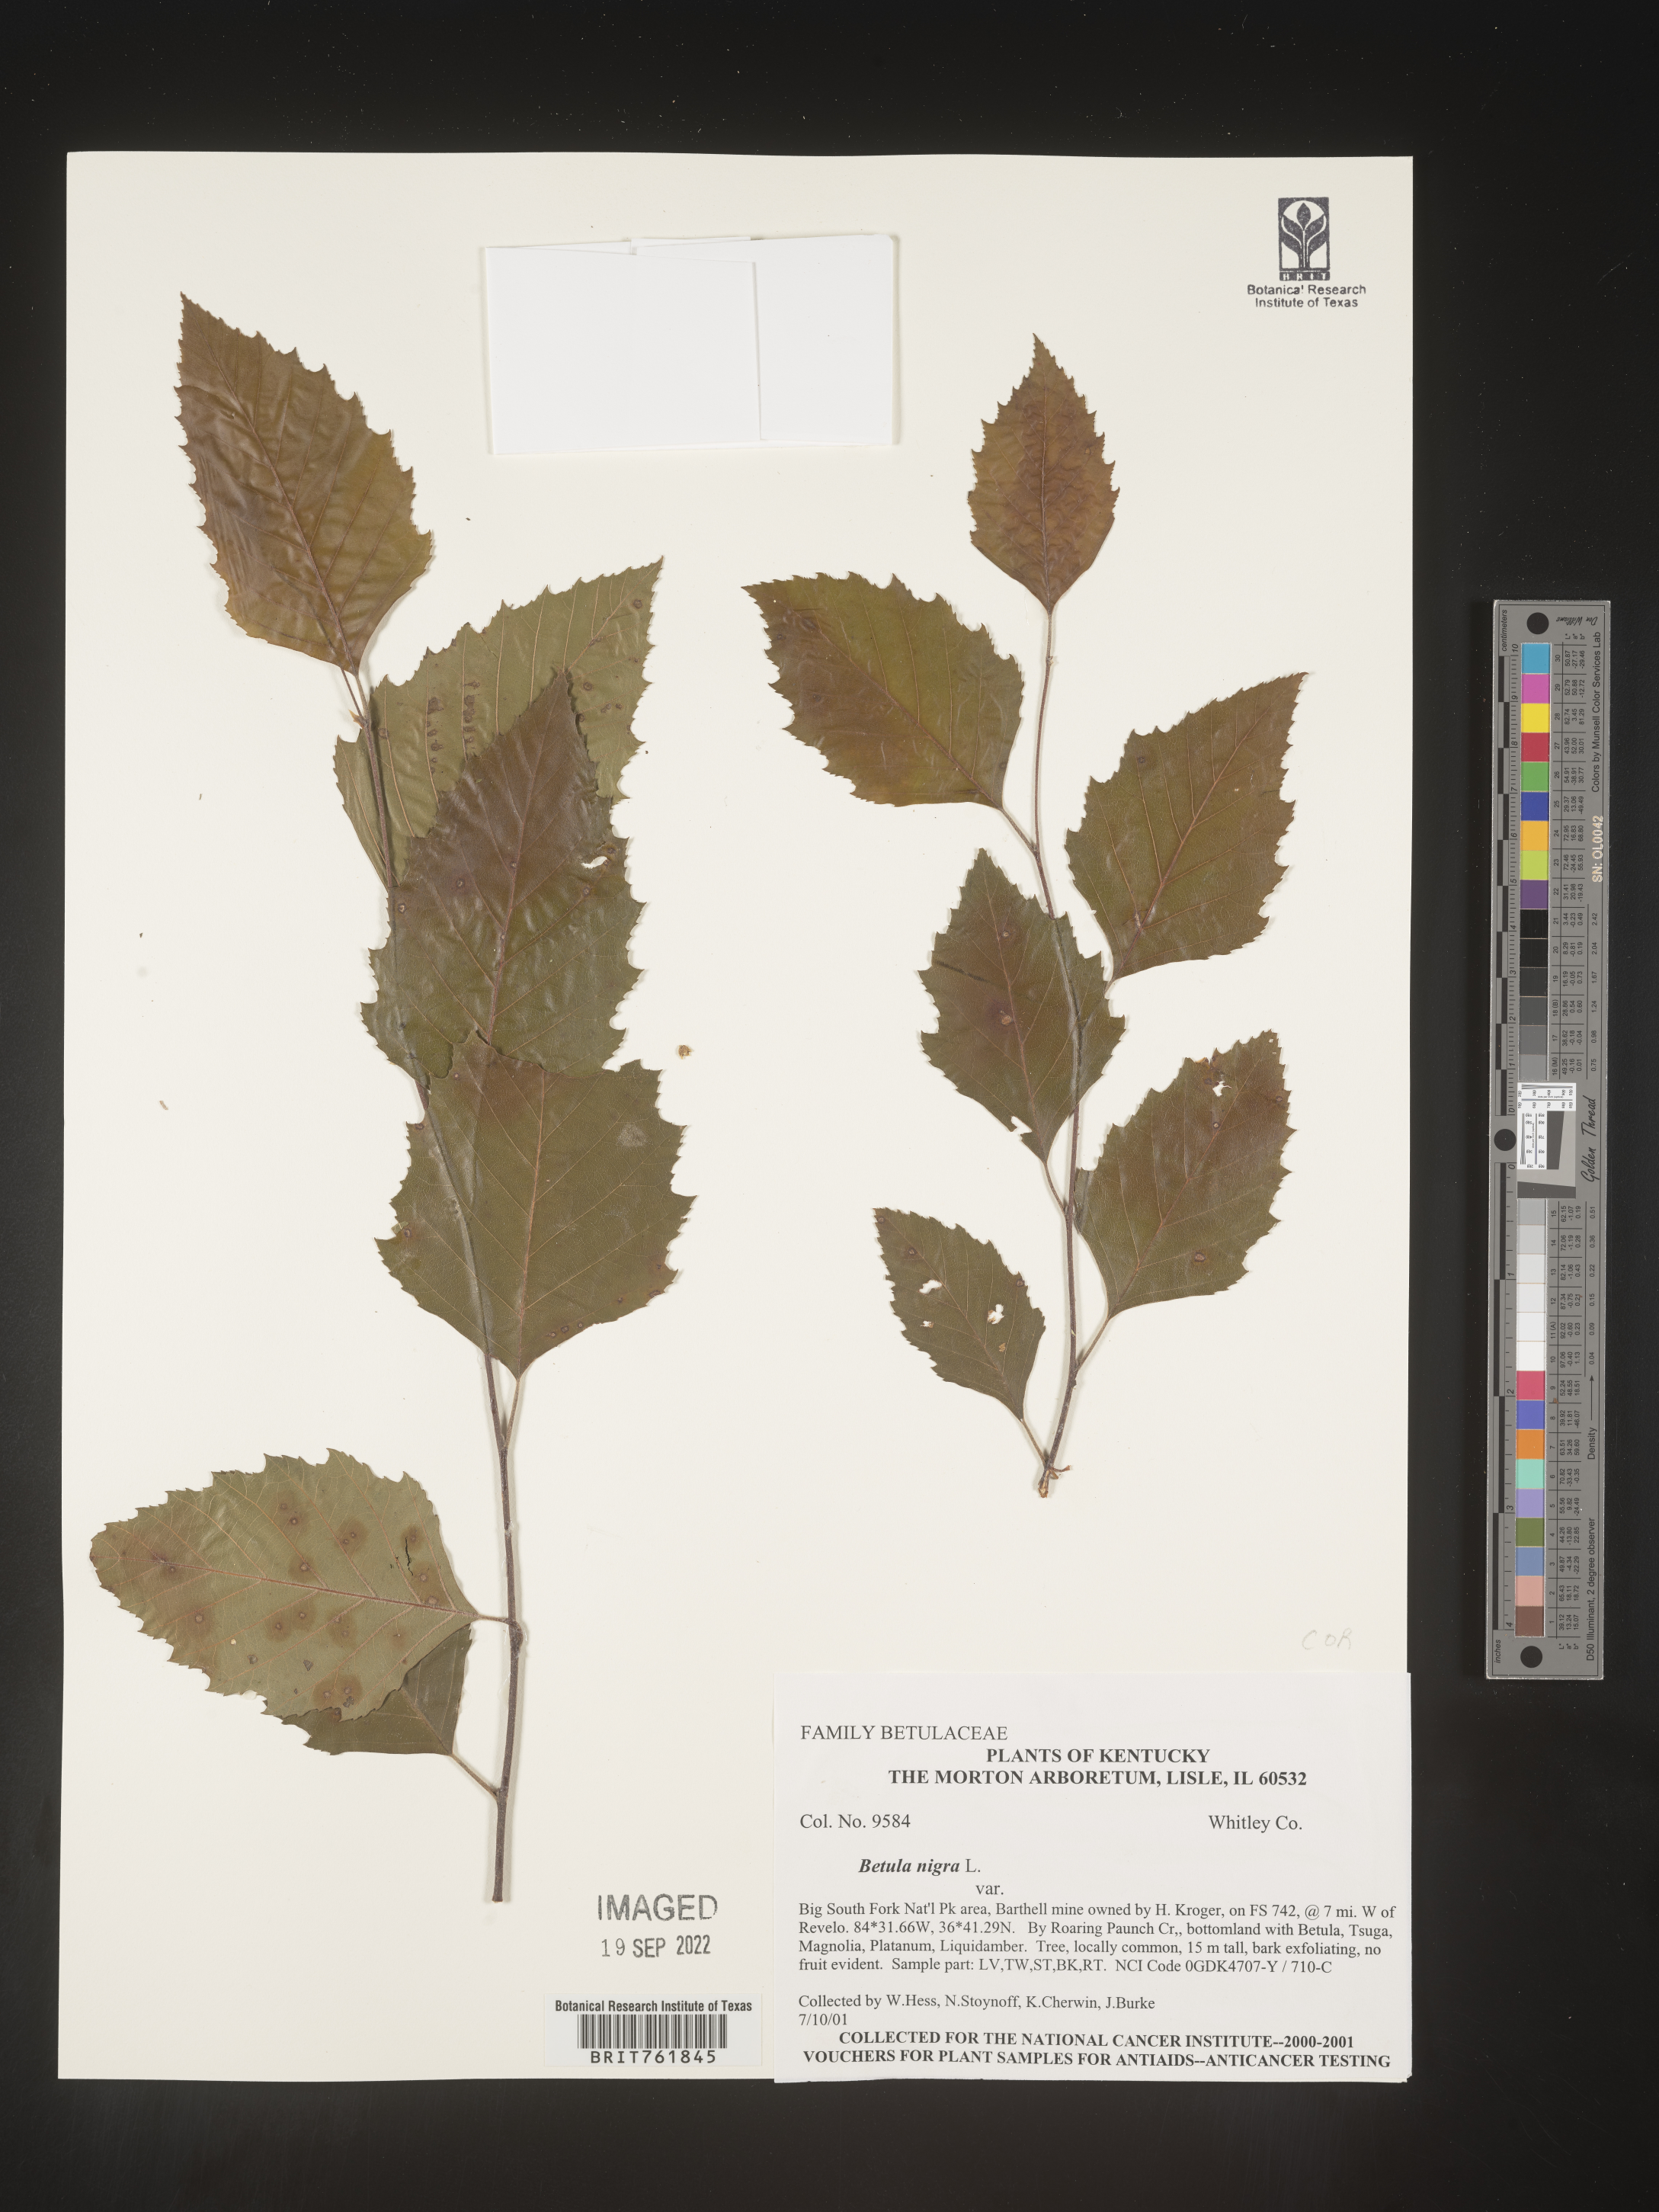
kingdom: Plantae
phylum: Tracheophyta
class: Magnoliopsida
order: Fagales
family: Betulaceae
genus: Betula
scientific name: Betula nigra
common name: Black birch
